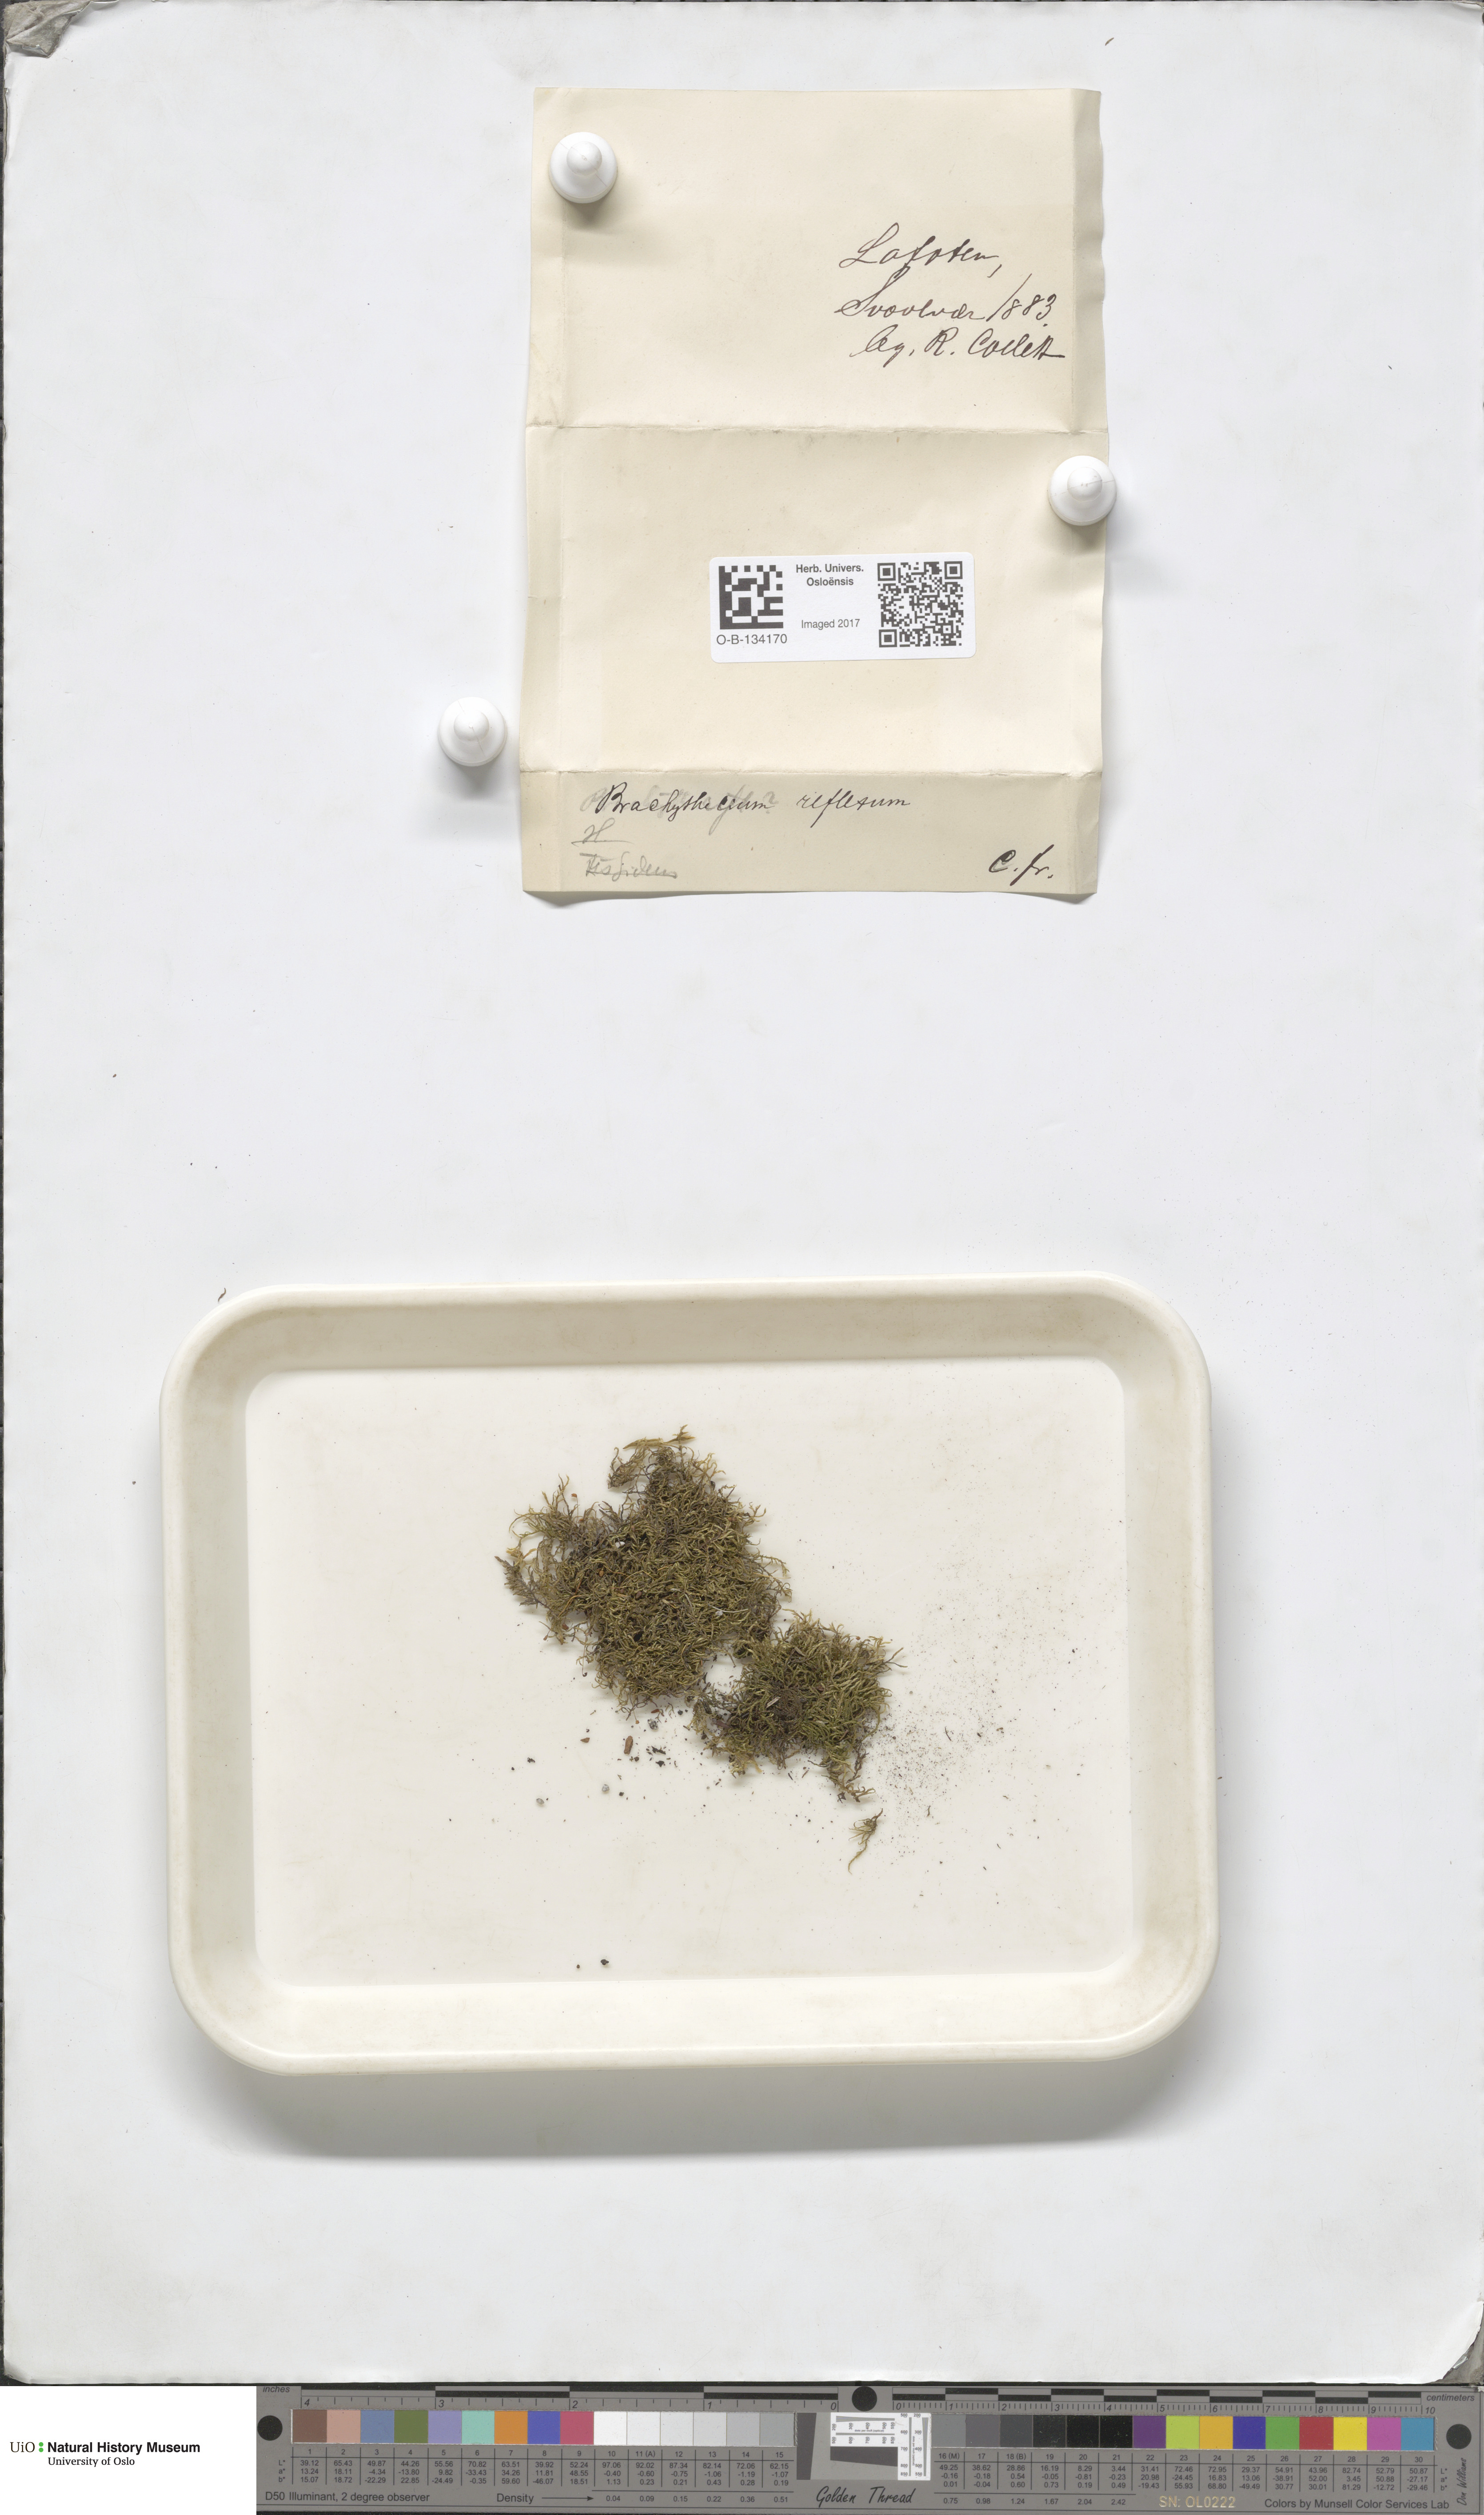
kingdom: Plantae
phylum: Bryophyta
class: Bryopsida
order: Hypnales
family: Brachytheciaceae
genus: Sciuro-hypnum
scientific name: Sciuro-hypnum reflexum
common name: Reflexed feather-moss
